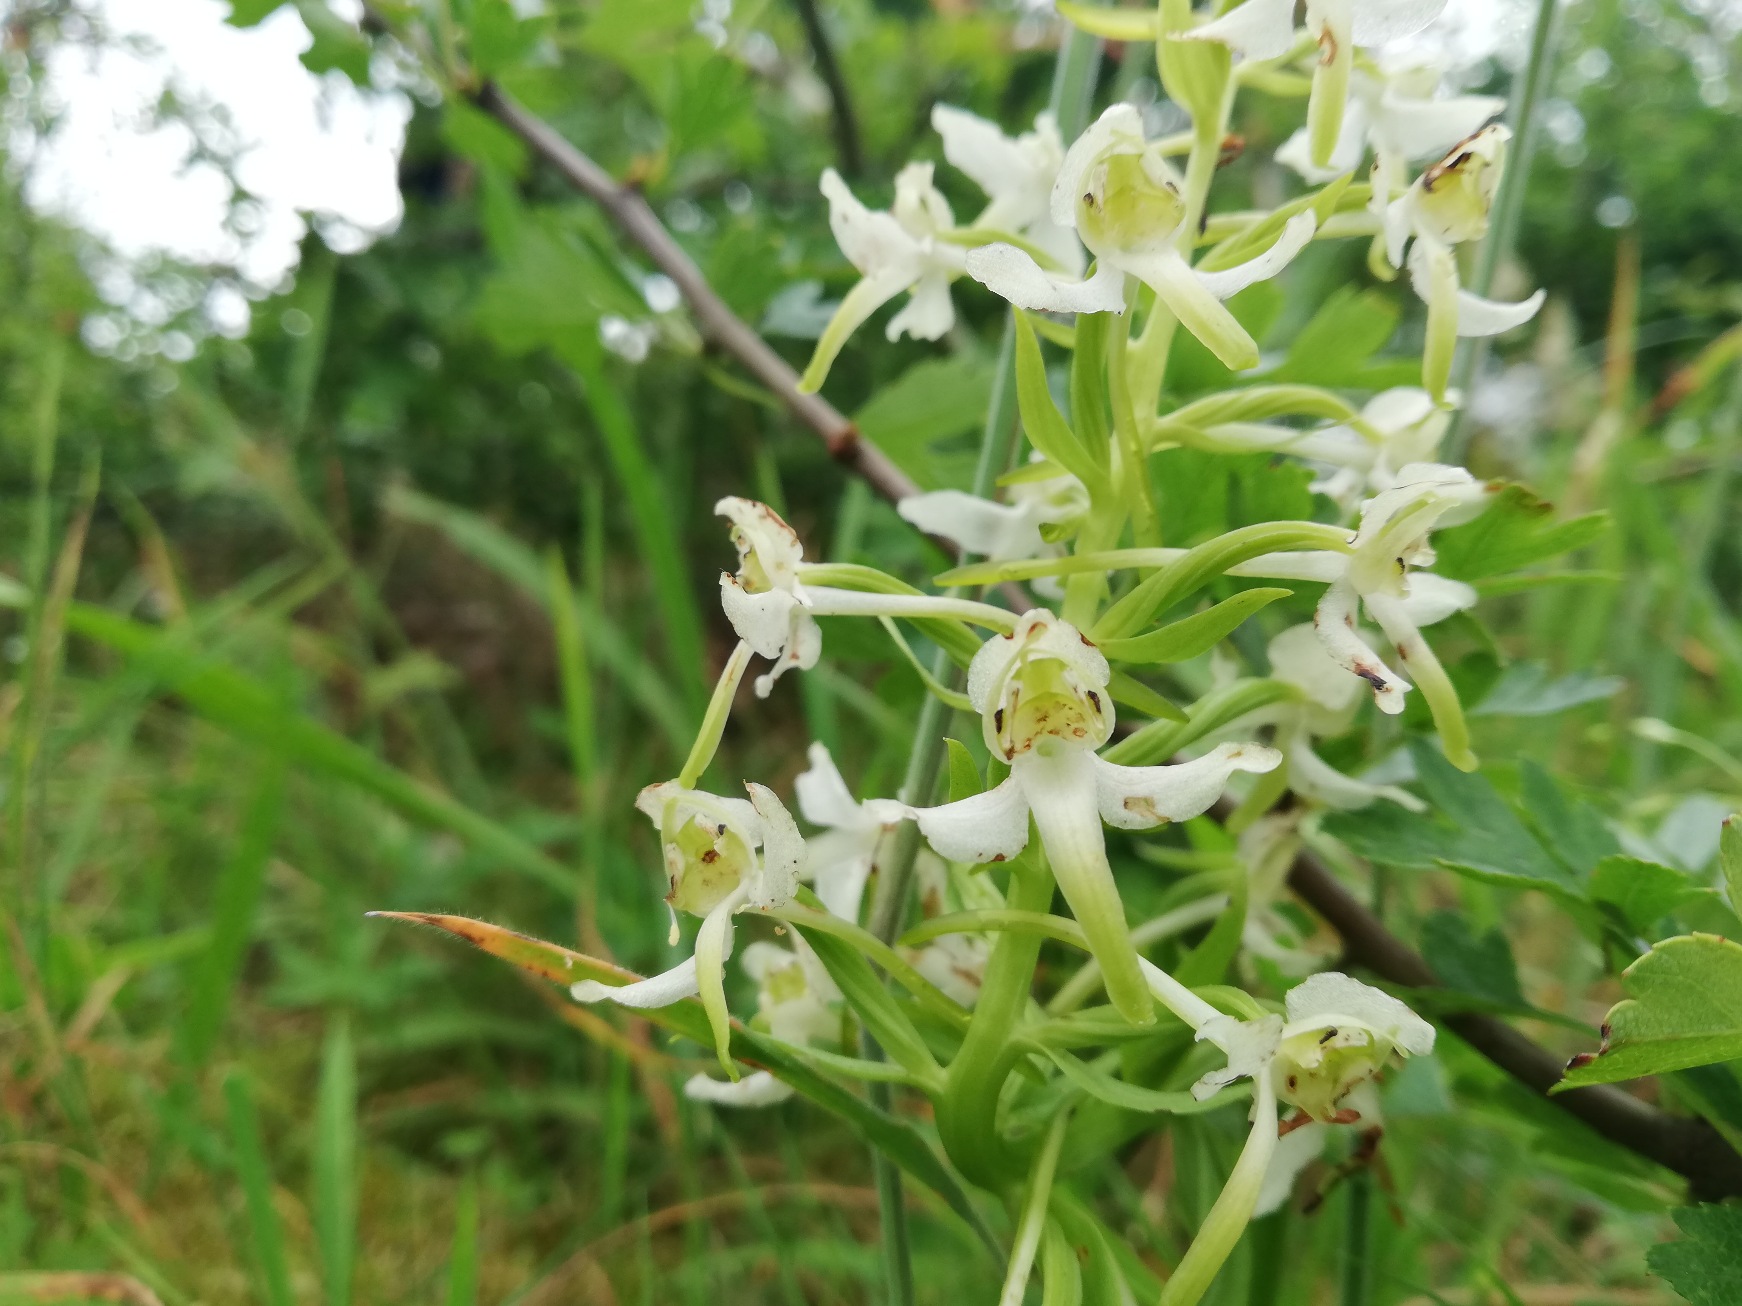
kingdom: Plantae
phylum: Tracheophyta
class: Liliopsida
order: Asparagales
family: Orchidaceae
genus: Platanthera
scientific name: Platanthera chlorantha
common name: Skov-gøgelilje
